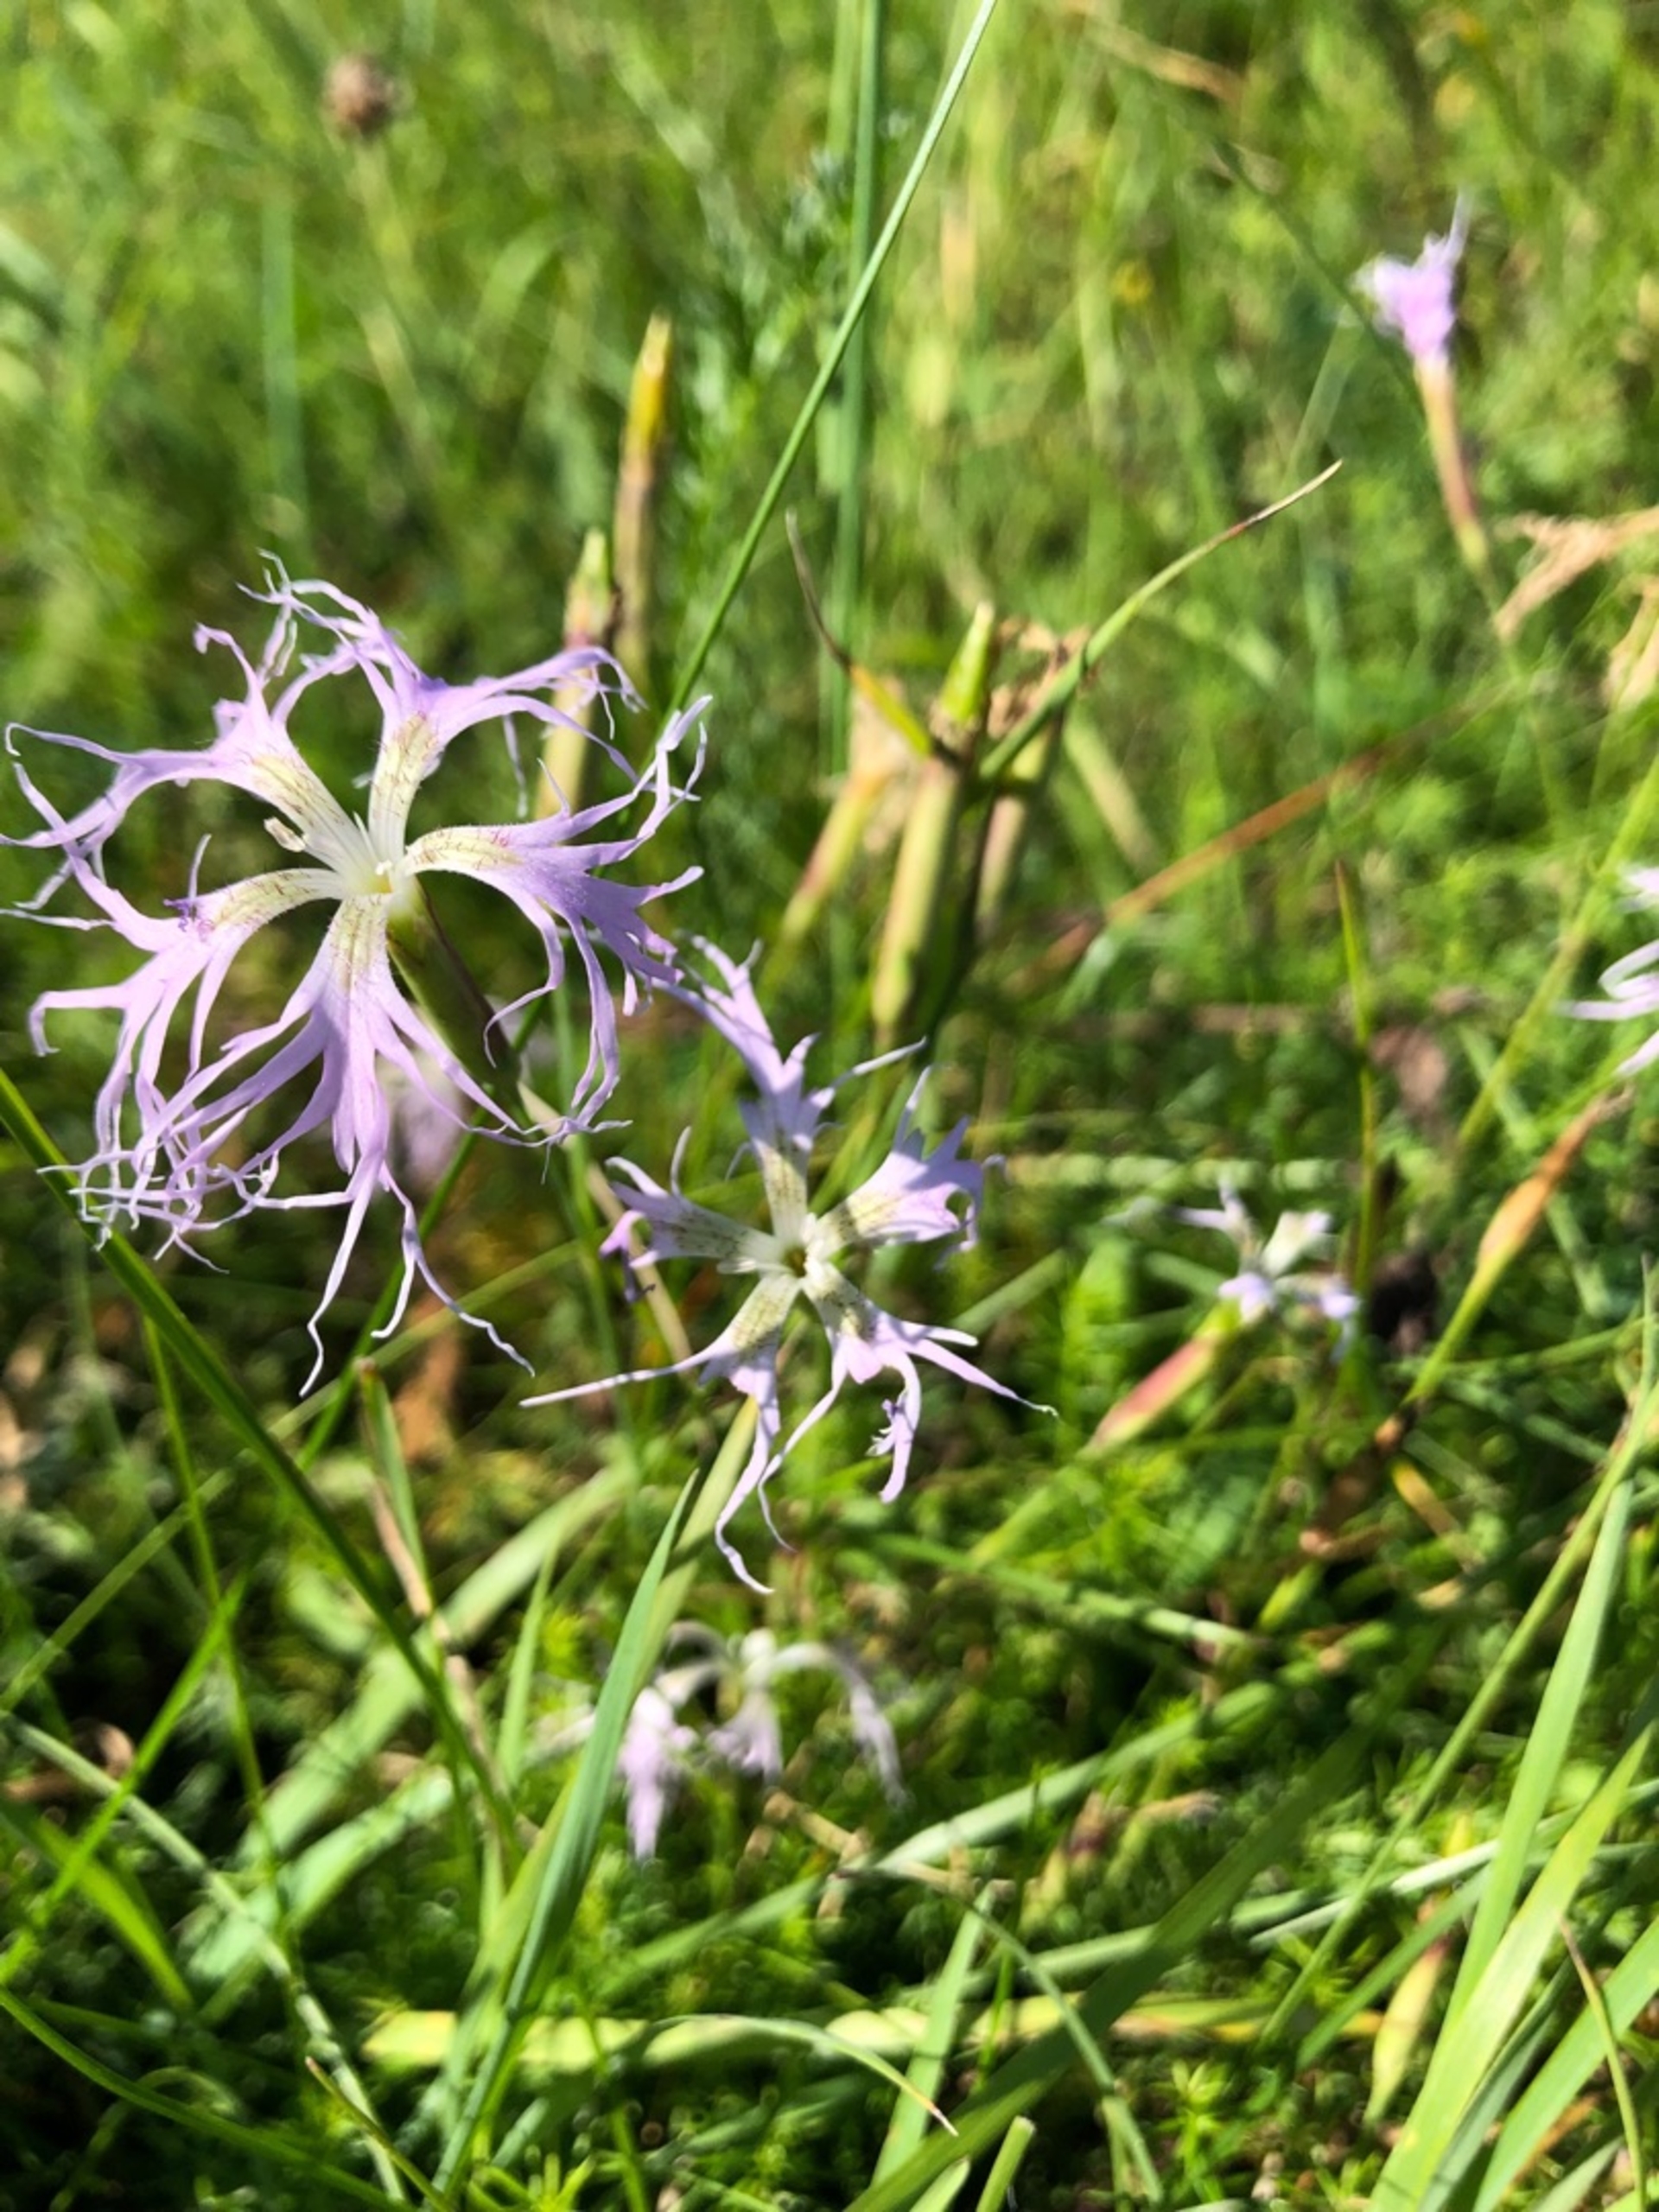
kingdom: Plantae
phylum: Tracheophyta
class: Magnoliopsida
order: Caryophyllales
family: Caryophyllaceae
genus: Dianthus
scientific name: Dianthus superbus
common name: Strand-nellike
